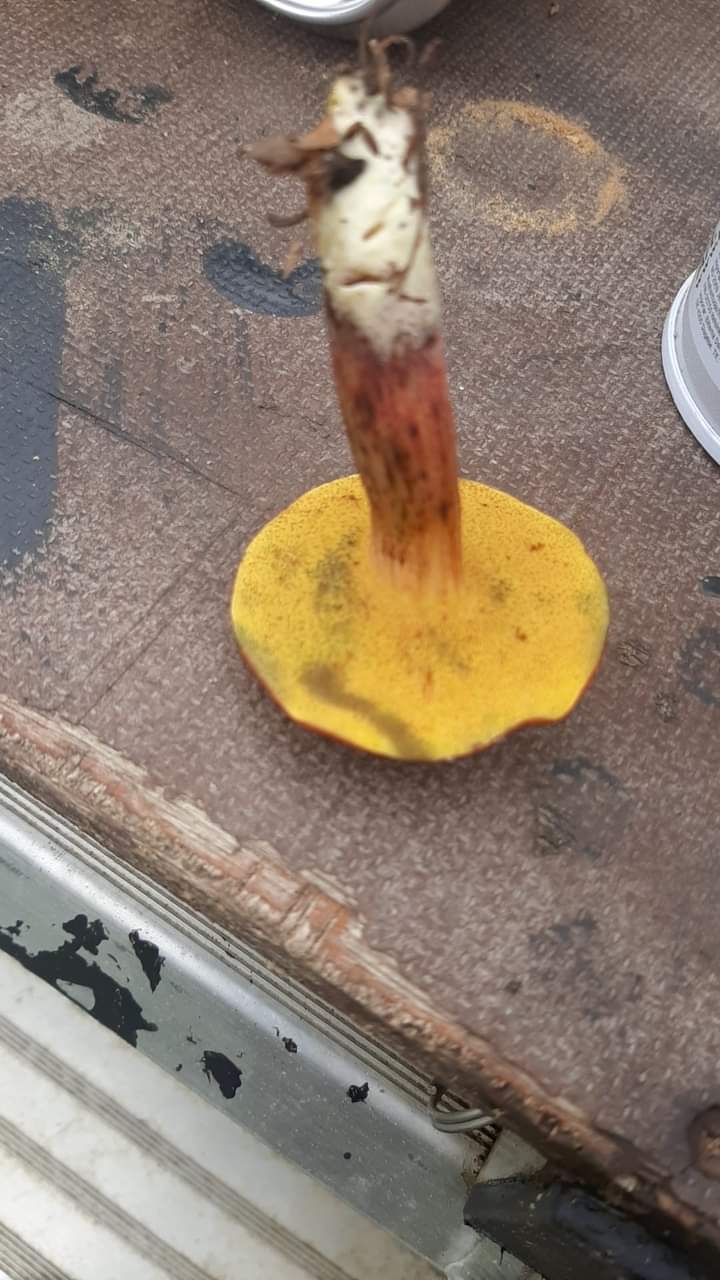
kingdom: Fungi
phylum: Basidiomycota
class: Agaricomycetes
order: Boletales
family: Boletaceae
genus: Xerocomellus
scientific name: Xerocomellus
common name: dværgrørhat
